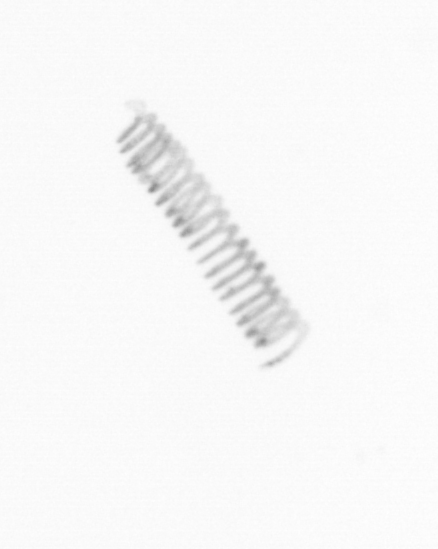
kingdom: Chromista
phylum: Ochrophyta
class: Bacillariophyceae
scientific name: Bacillariophyceae
